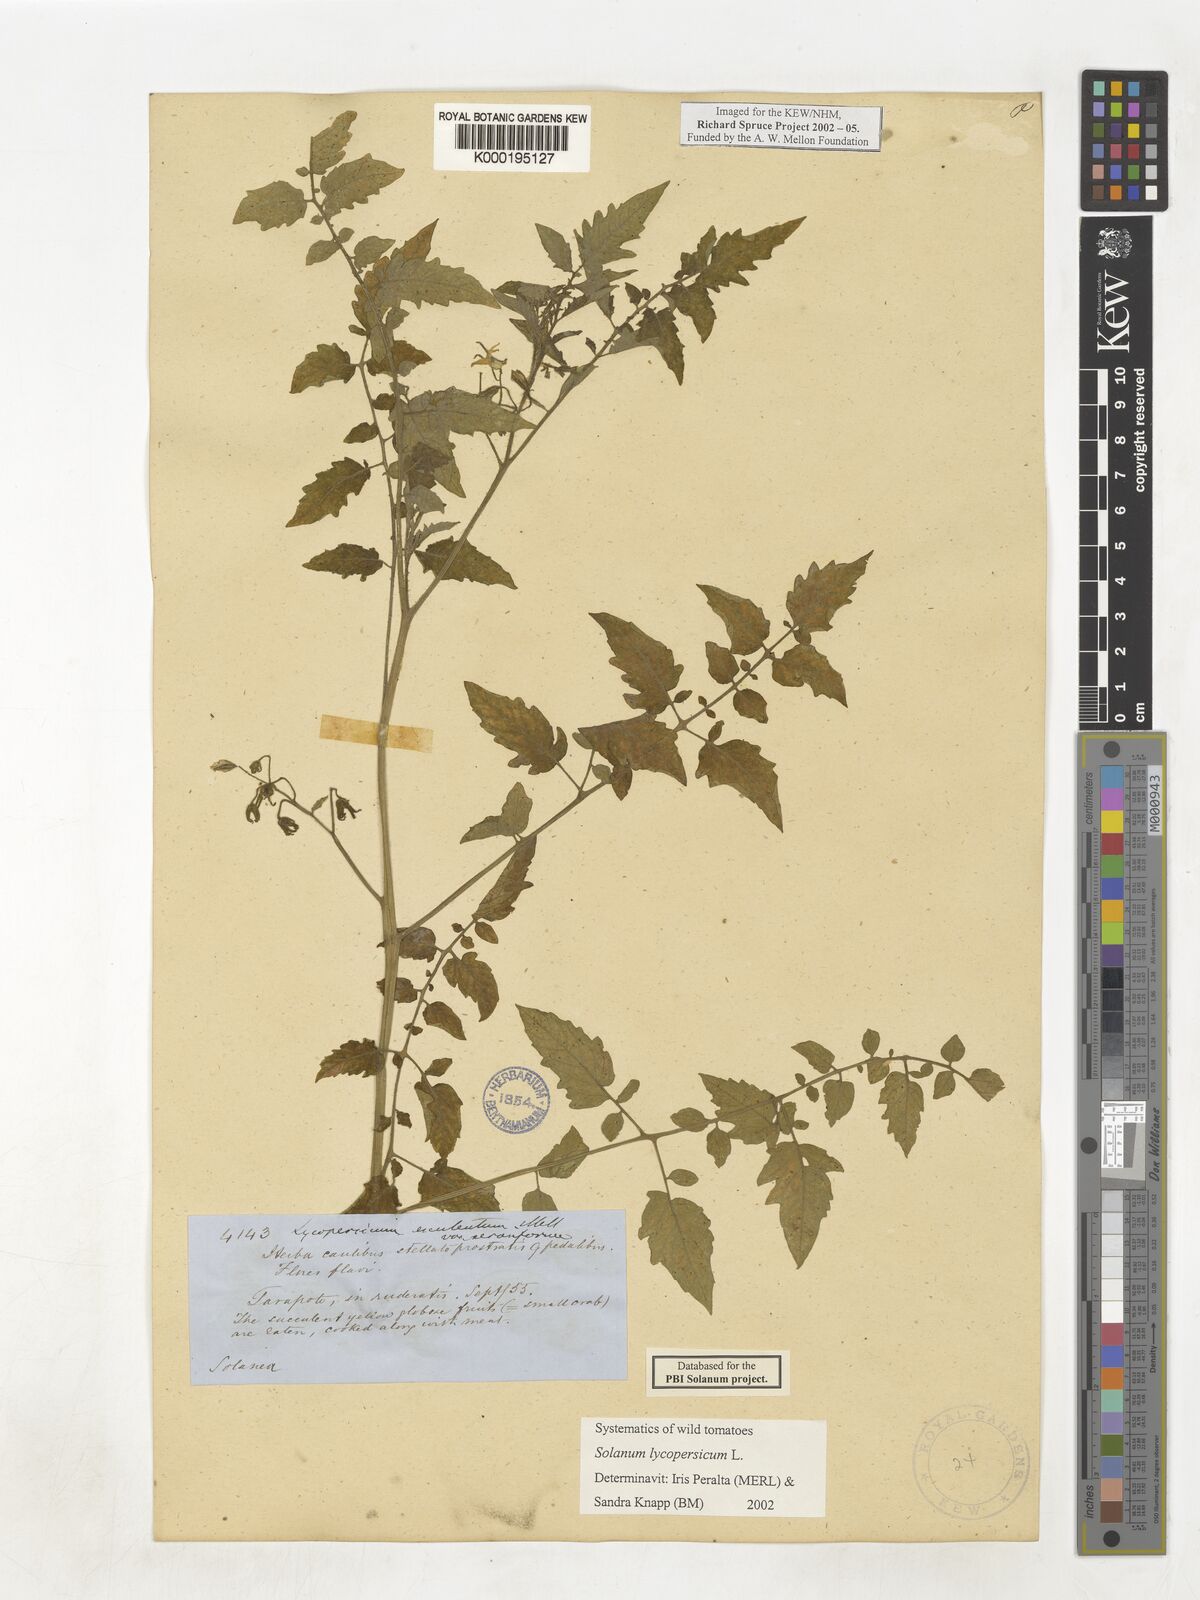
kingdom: Plantae
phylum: Tracheophyta
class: Magnoliopsida
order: Solanales
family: Solanaceae
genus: Solanum
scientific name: Solanum lycopersicum
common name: Garden tomato
